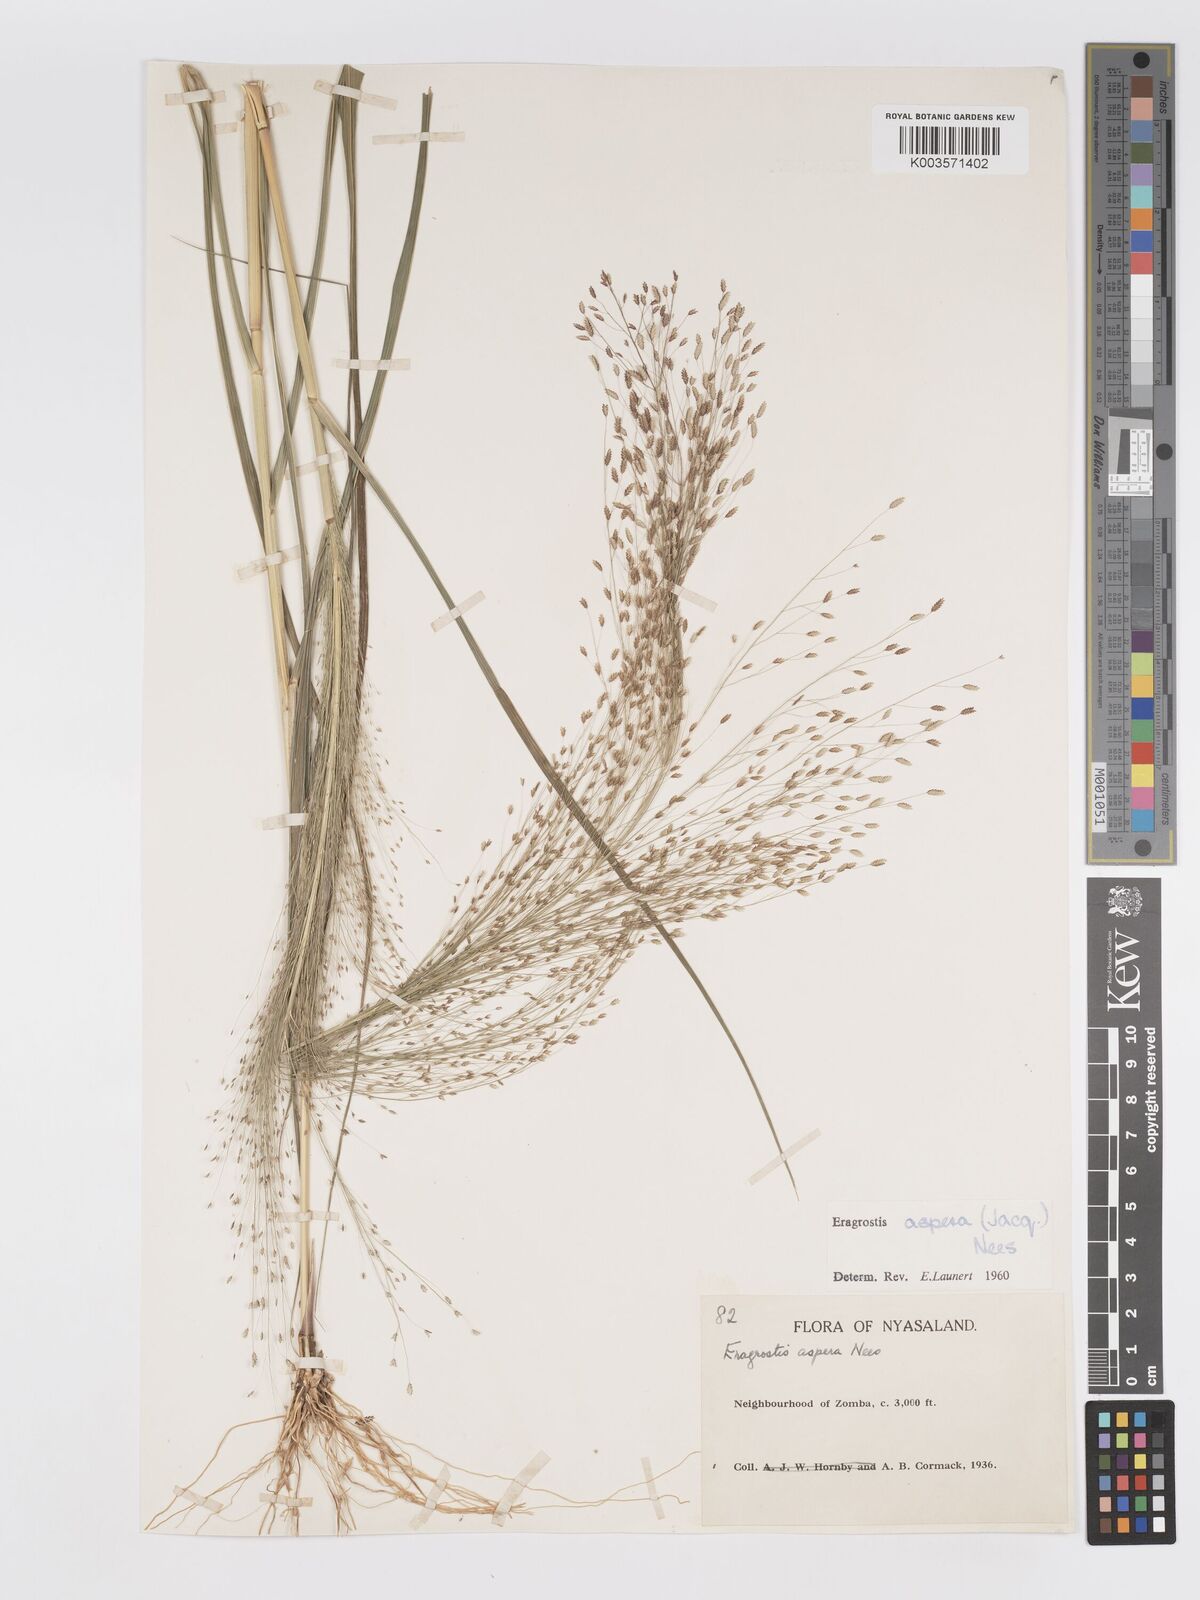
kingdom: Plantae
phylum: Tracheophyta
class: Liliopsida
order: Poales
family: Poaceae
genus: Eragrostis
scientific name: Eragrostis aspera
